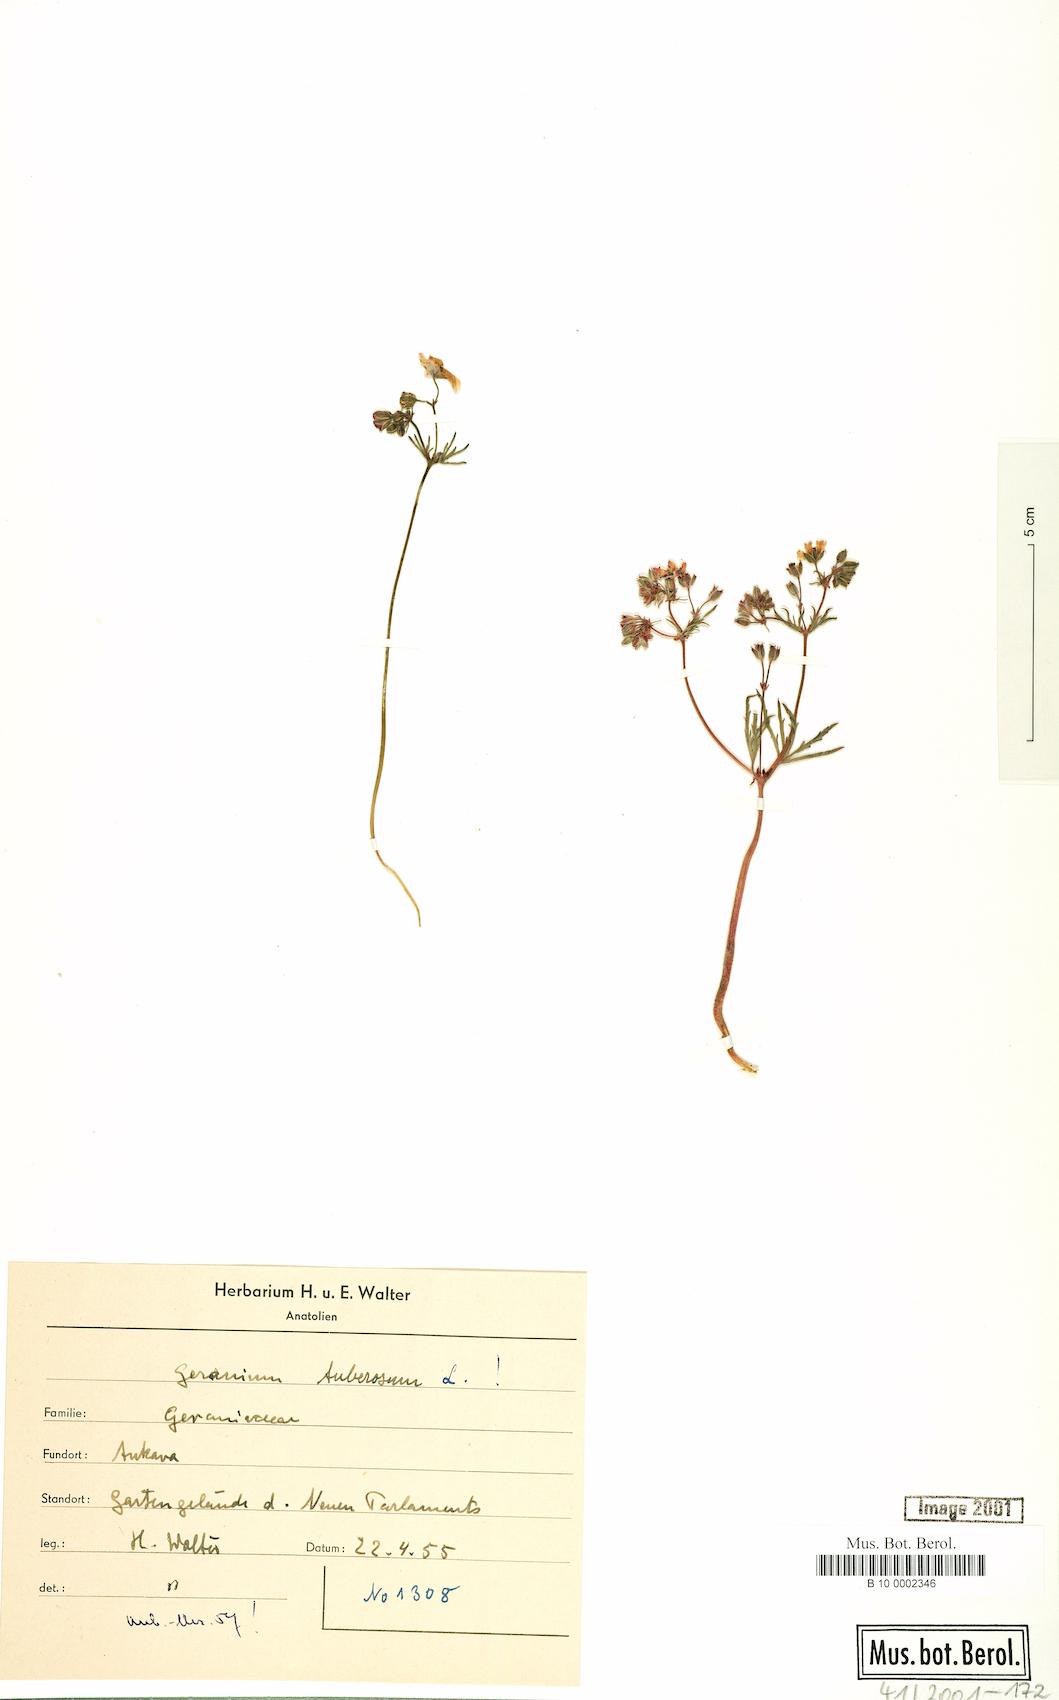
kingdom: Plantae
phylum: Tracheophyta
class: Magnoliopsida
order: Geraniales
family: Geraniaceae
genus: Geranium
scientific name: Geranium tuberosum
